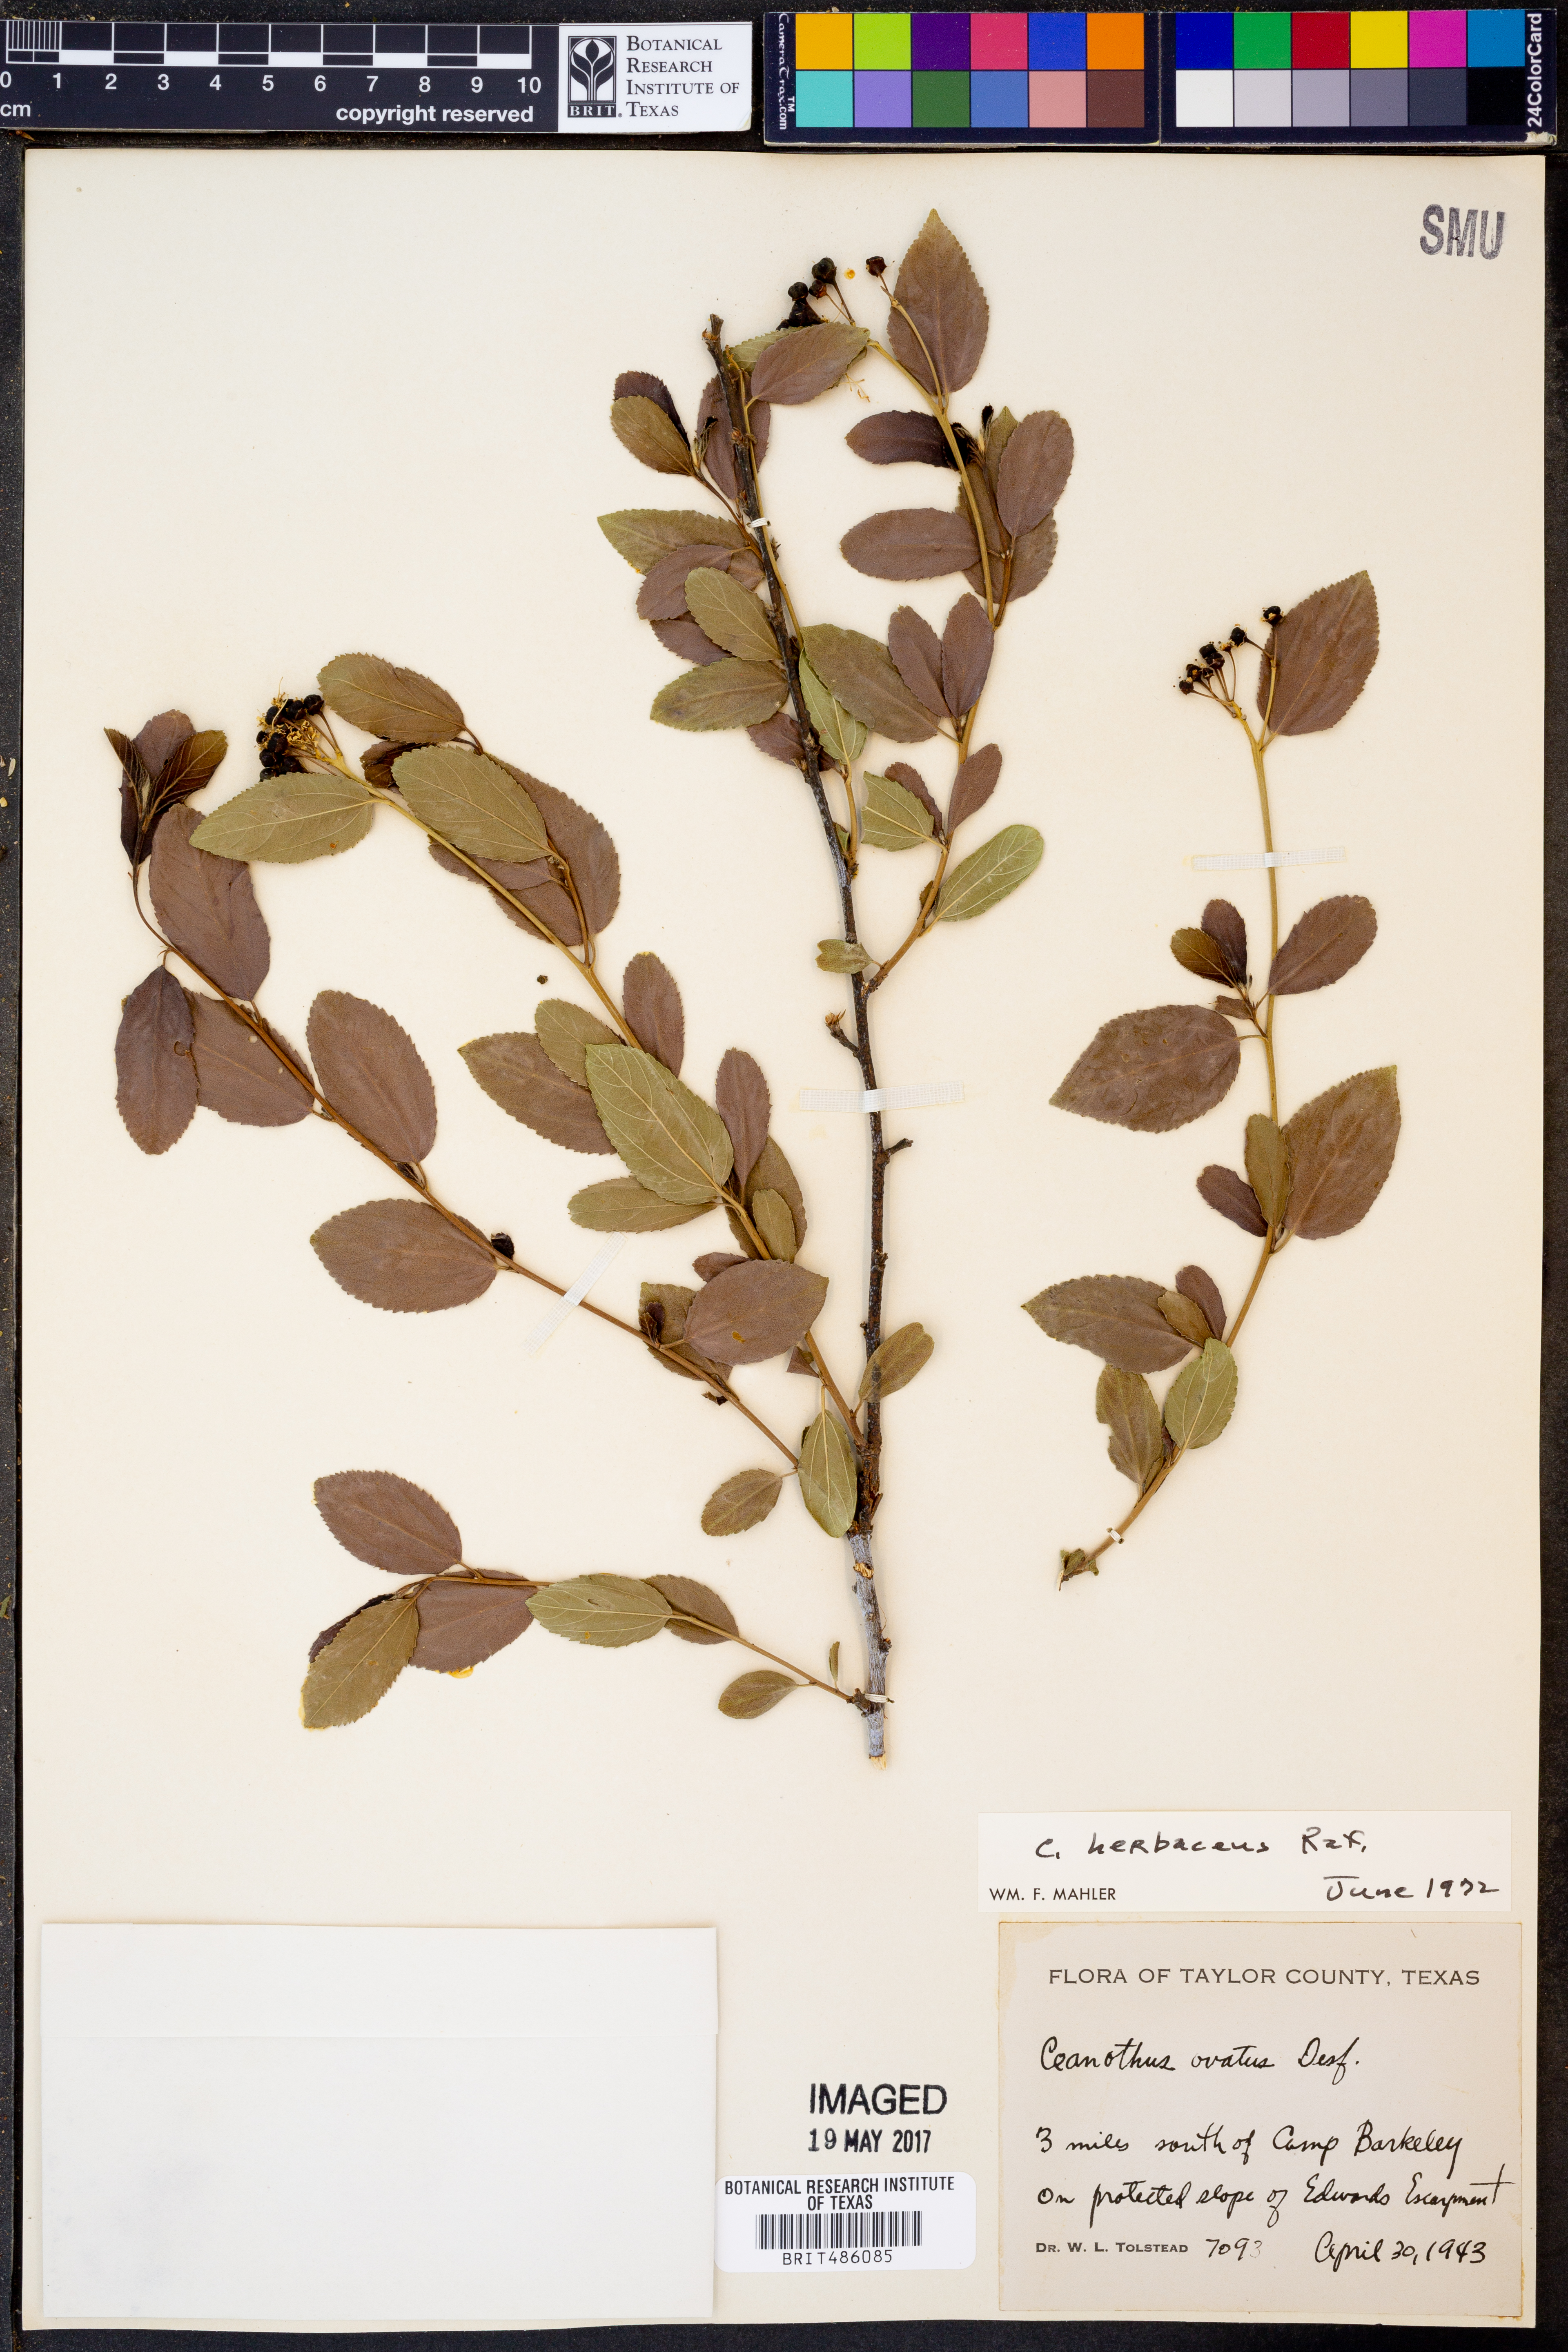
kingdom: Plantae
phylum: Tracheophyta
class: Magnoliopsida
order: Rosales
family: Rhamnaceae
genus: Ceanothus
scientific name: Ceanothus herbaceus
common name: Inland ceanothus
